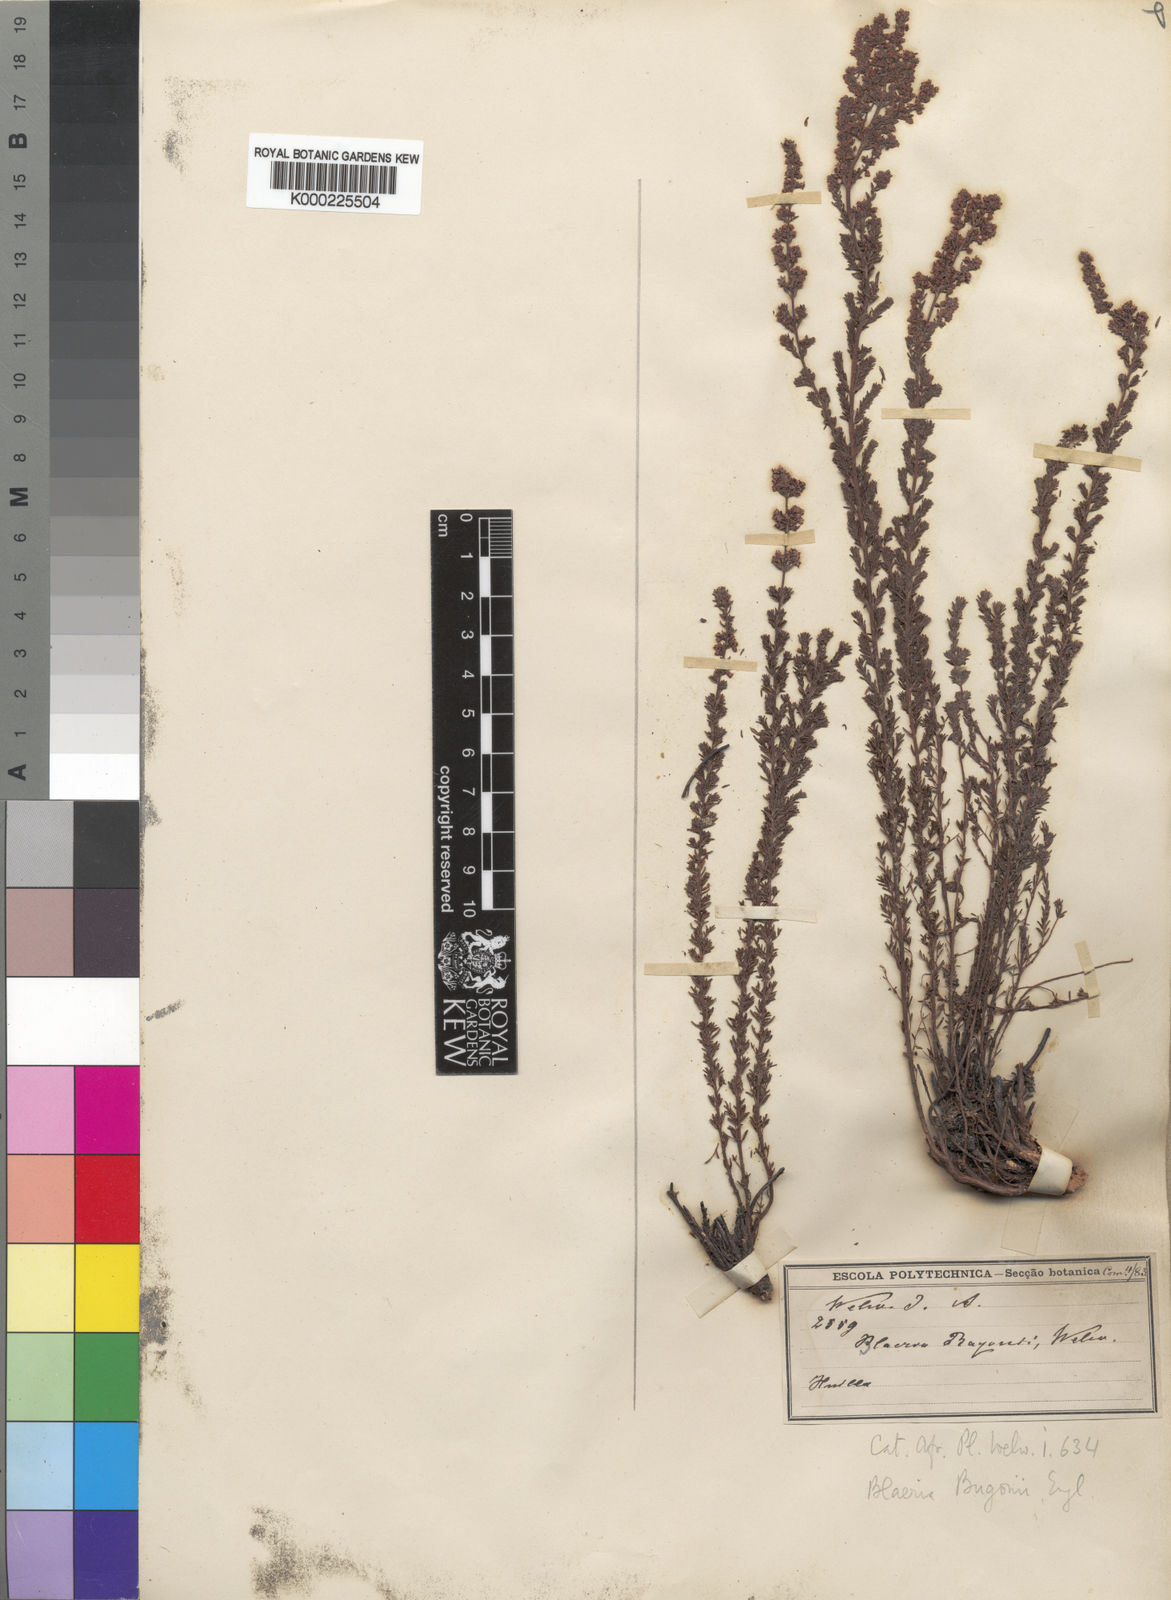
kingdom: Plantae
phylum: Tracheophyta
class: Magnoliopsida
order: Ericales
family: Ericaceae
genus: Erica
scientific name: Erica silvatica
